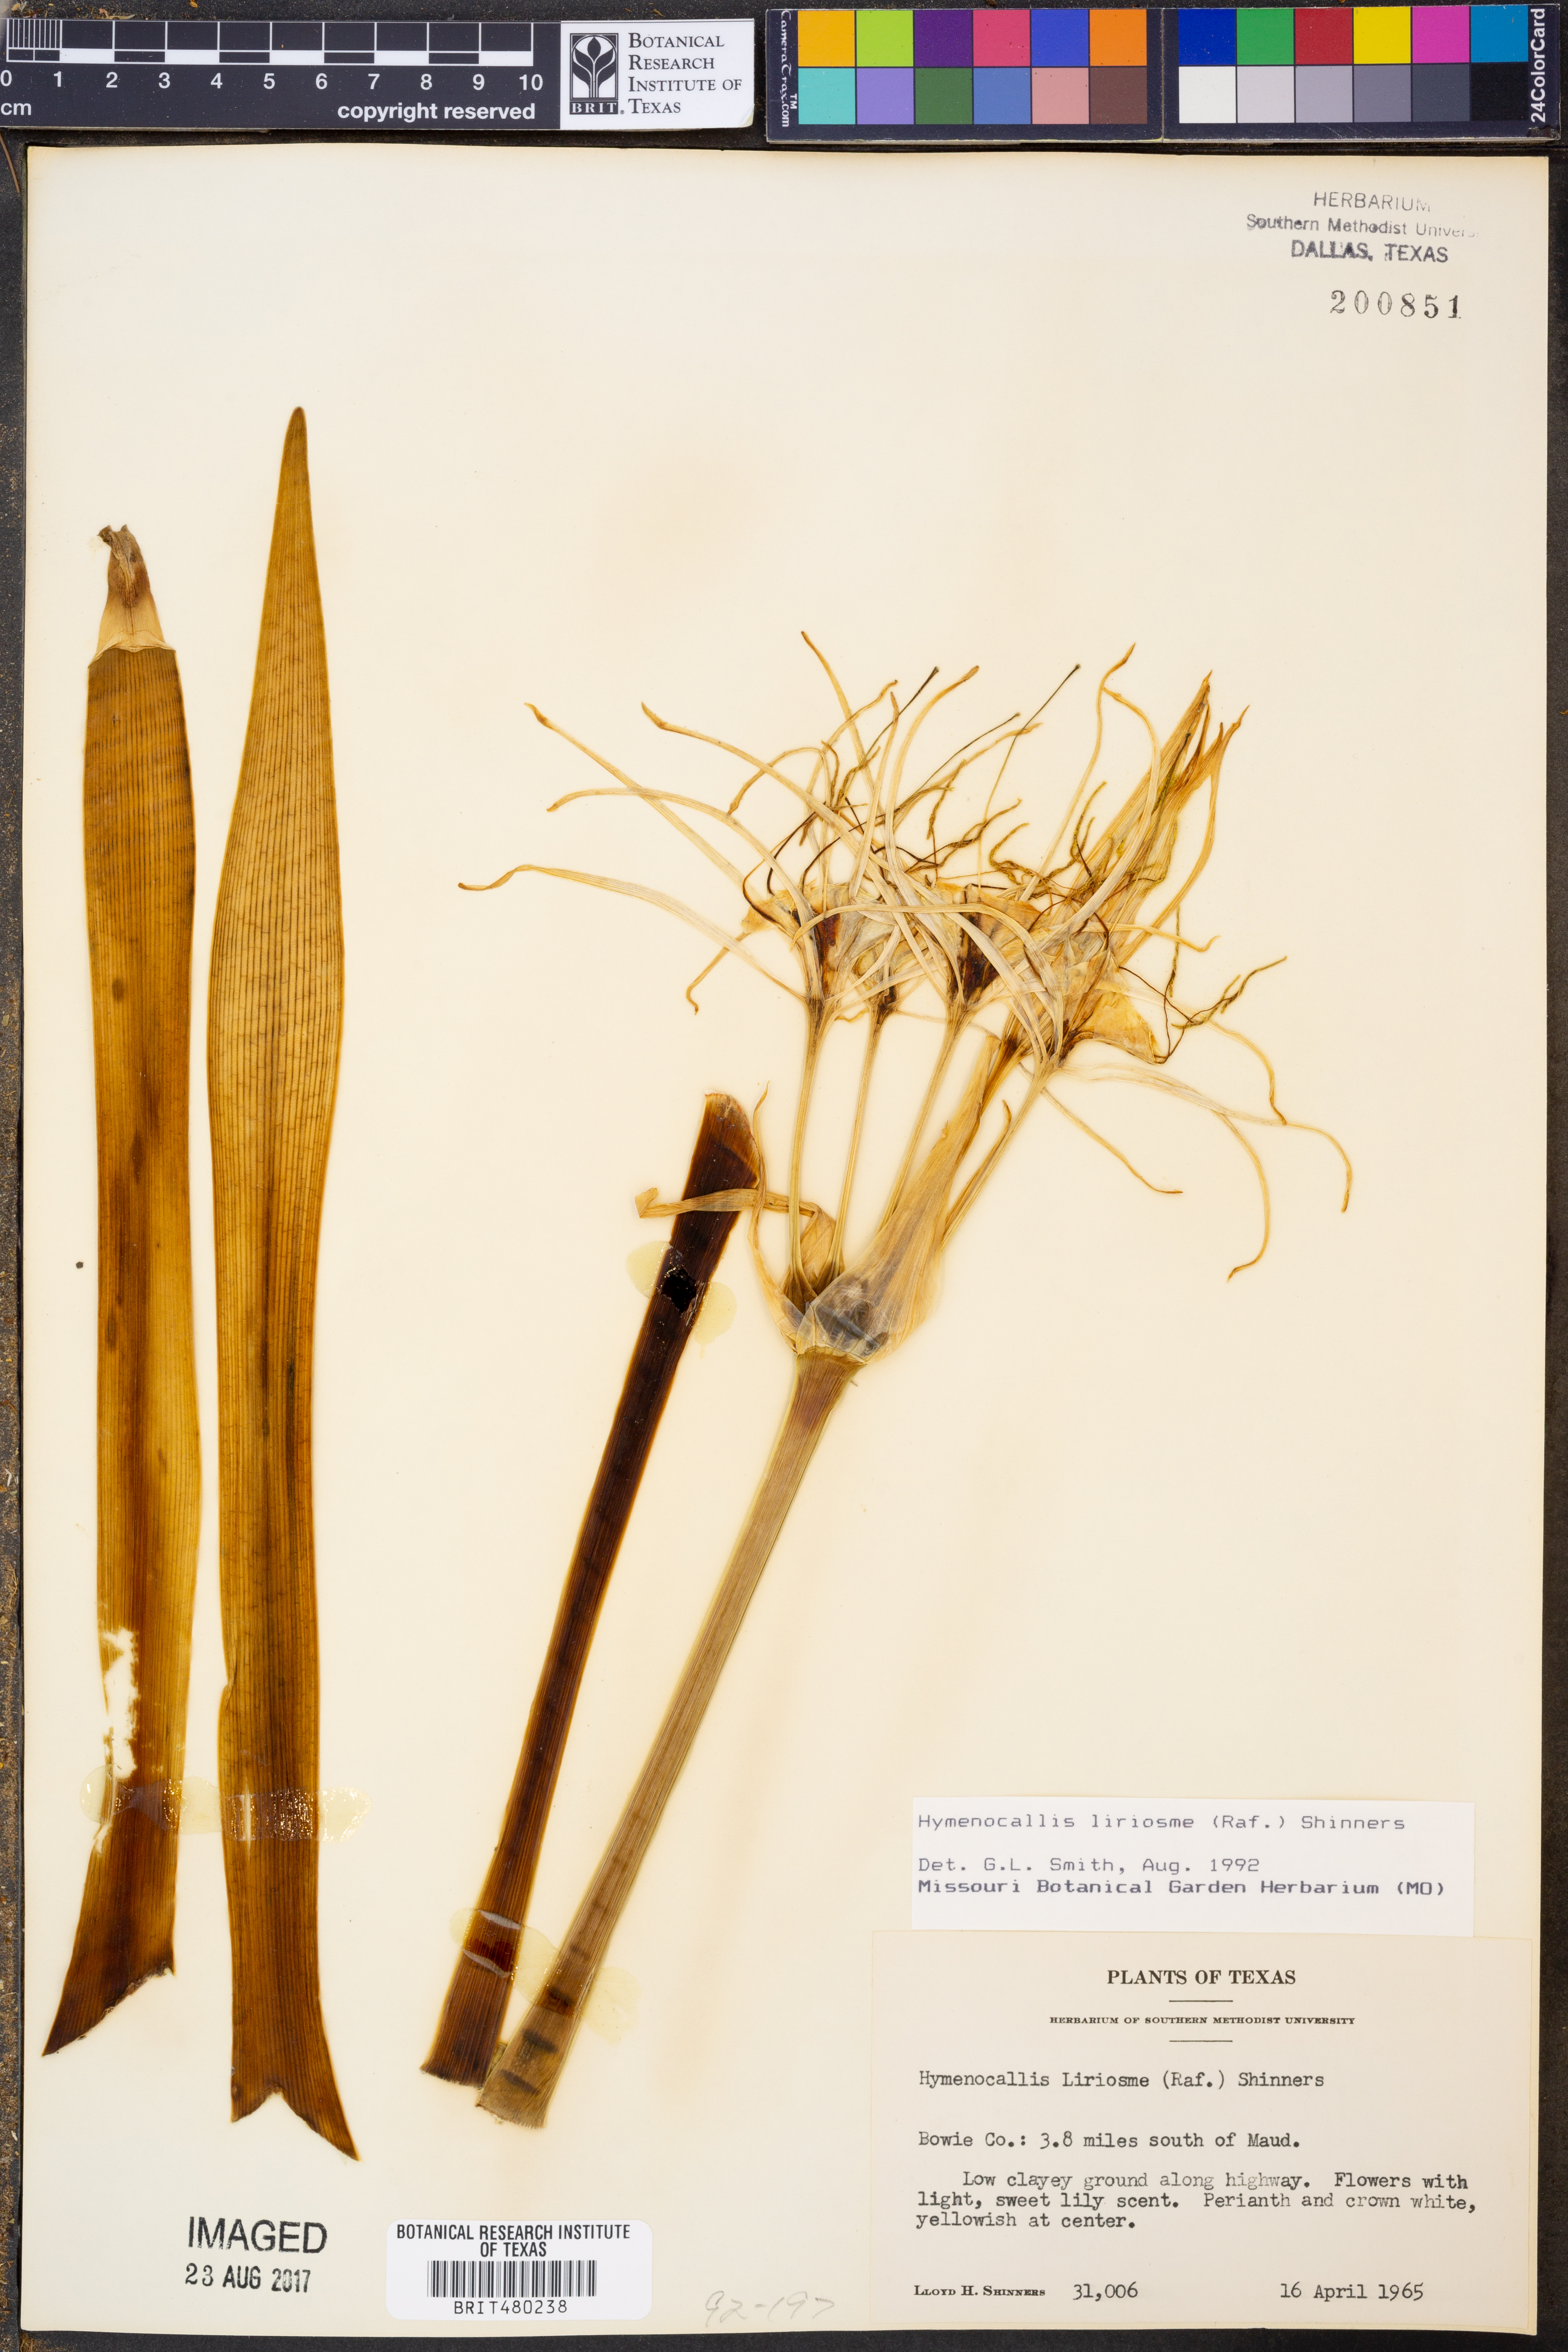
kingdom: Plantae
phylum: Tracheophyta
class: Liliopsida
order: Asparagales
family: Amaryllidaceae
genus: Hymenocallis
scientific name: Hymenocallis liriosme
